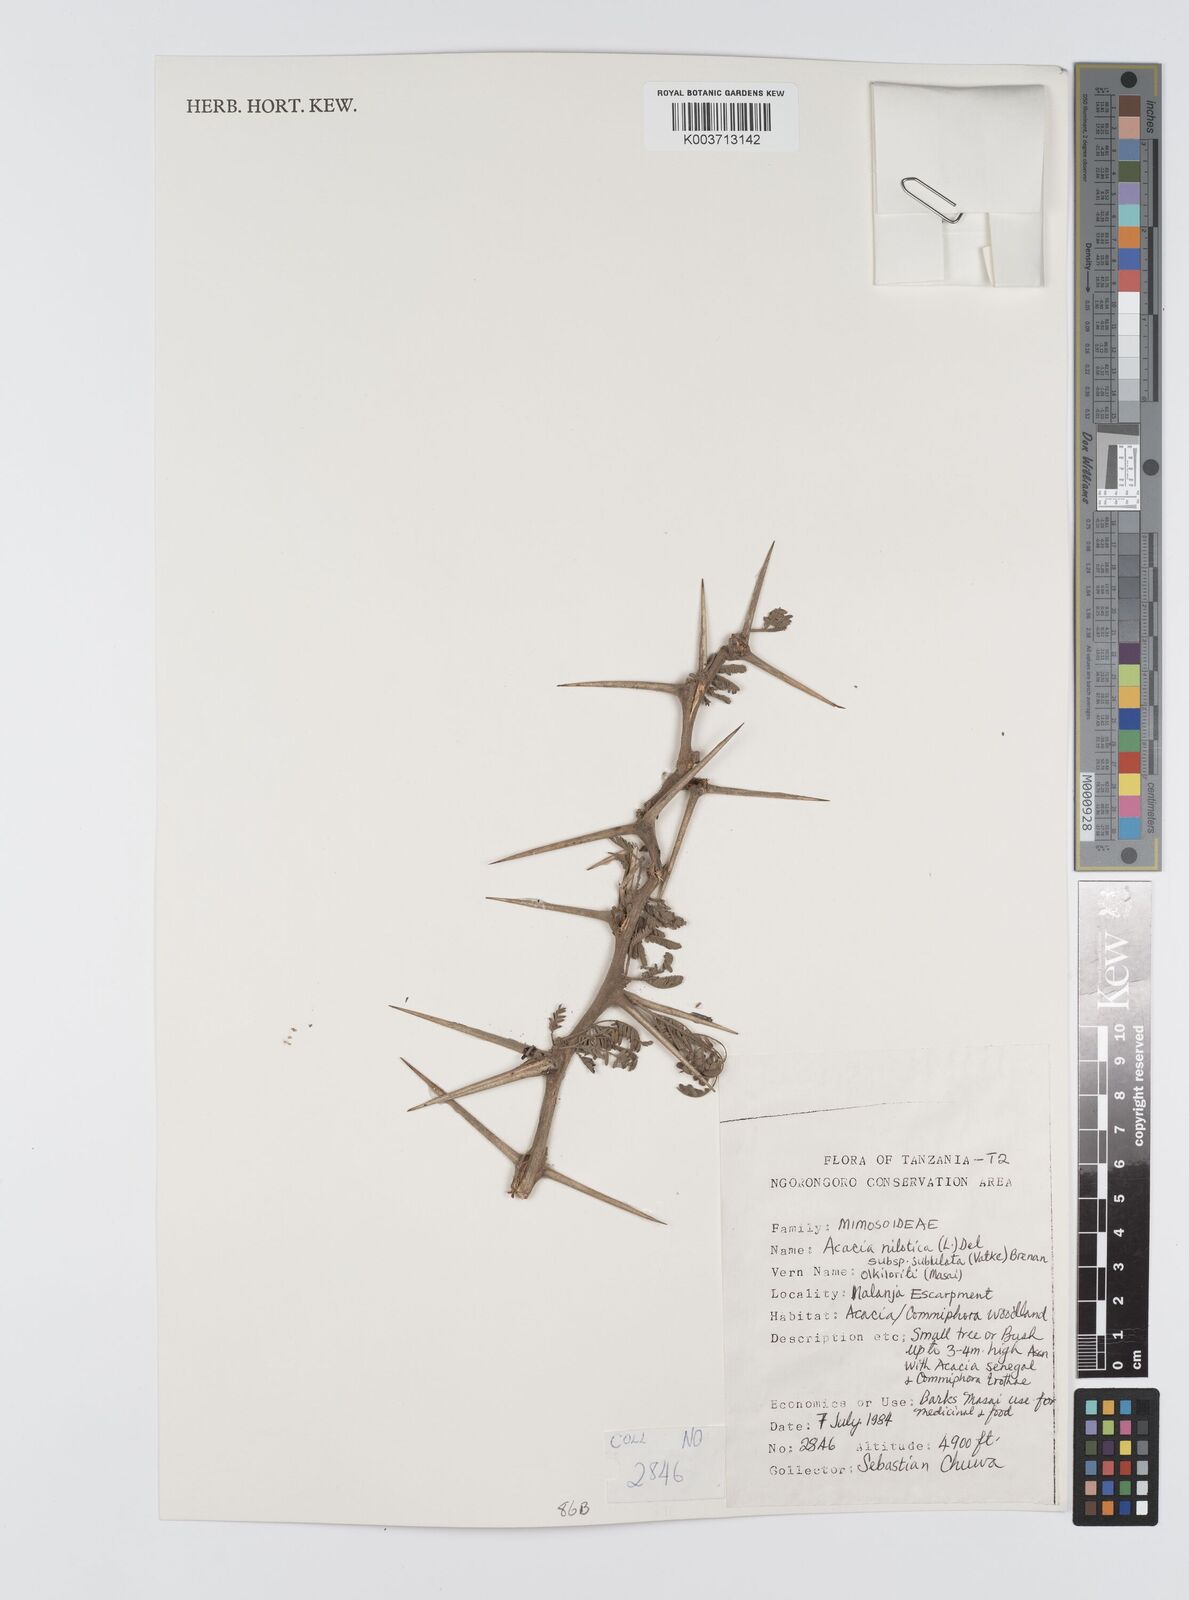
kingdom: Plantae
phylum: Tracheophyta
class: Magnoliopsida
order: Fabales
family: Fabaceae
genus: Vachellia
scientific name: Vachellia nilotica
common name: Arabic gumtree
